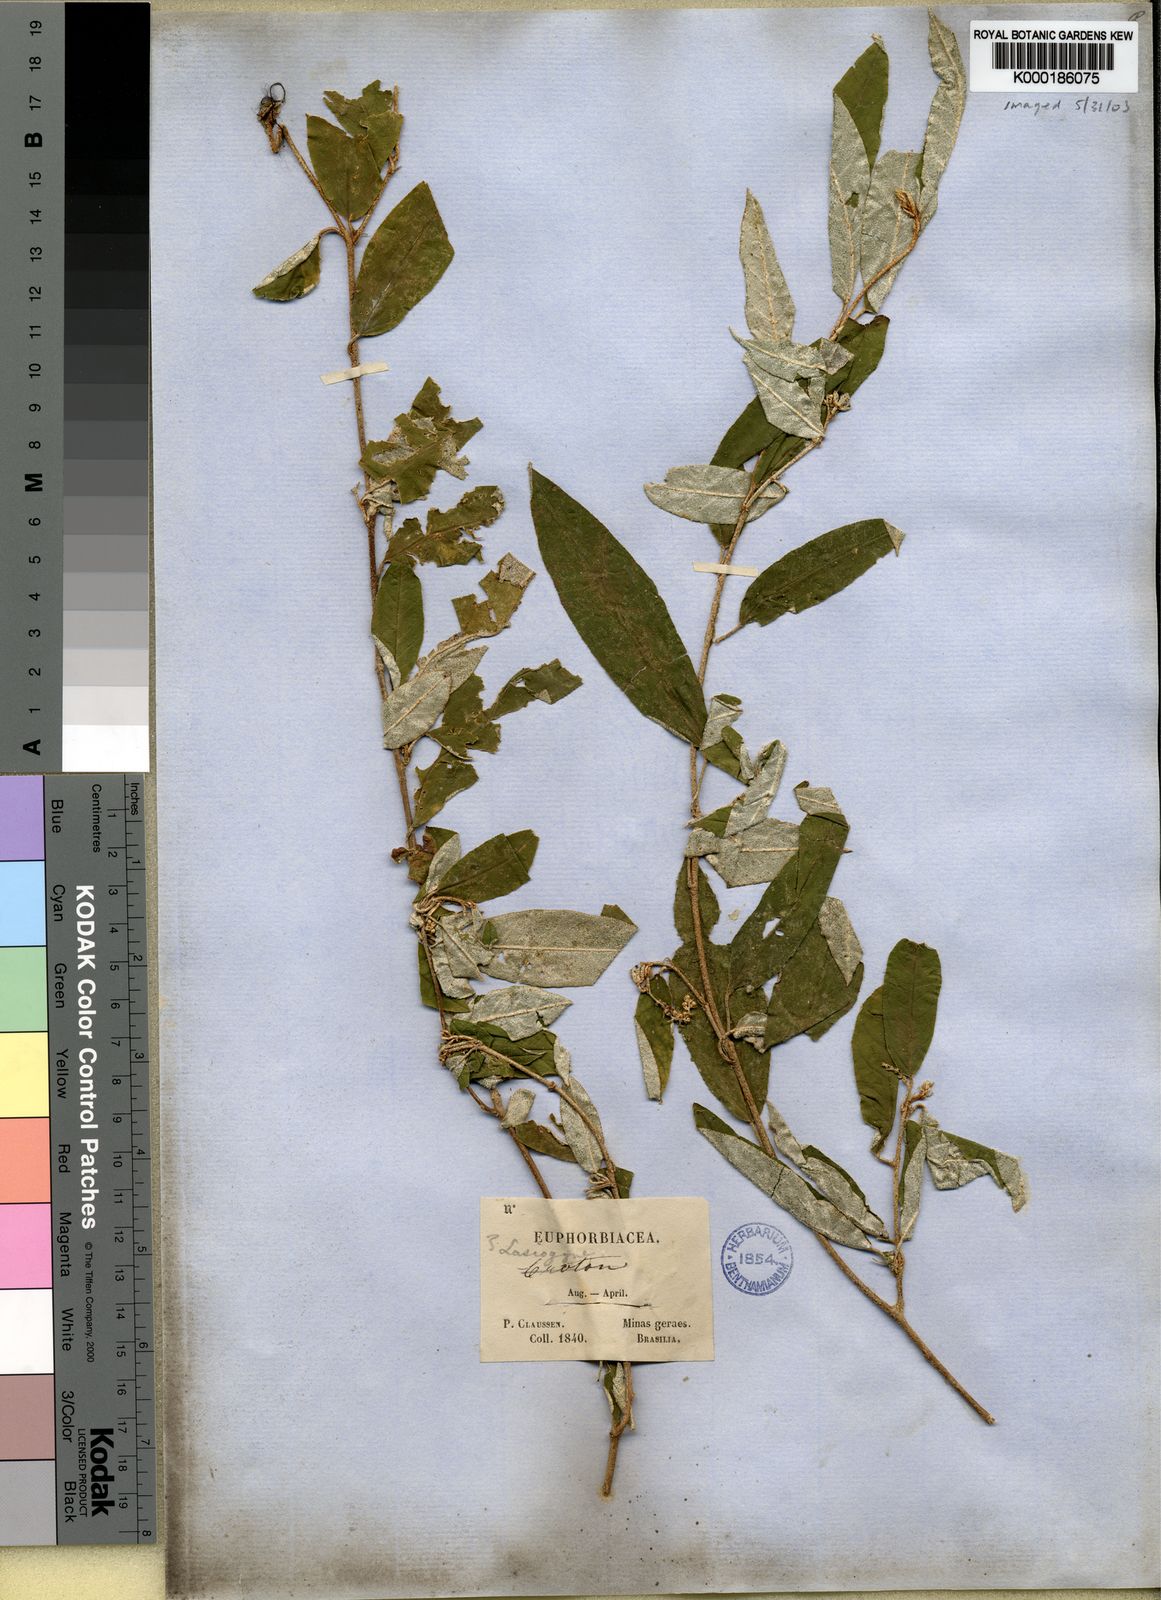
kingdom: Plantae
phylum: Tracheophyta
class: Magnoliopsida
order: Malpighiales
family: Euphorbiaceae
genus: Croton
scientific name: Croton claussenianus
